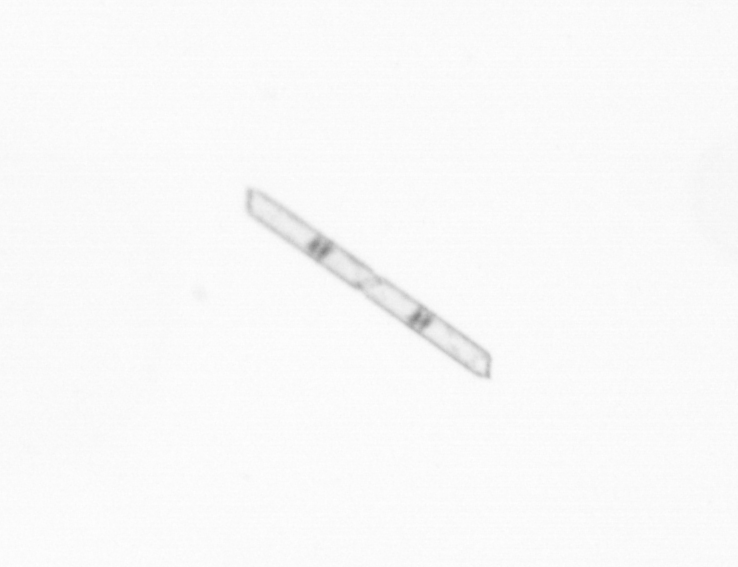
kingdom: Chromista
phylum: Ochrophyta
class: Bacillariophyceae
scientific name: Bacillariophyceae
